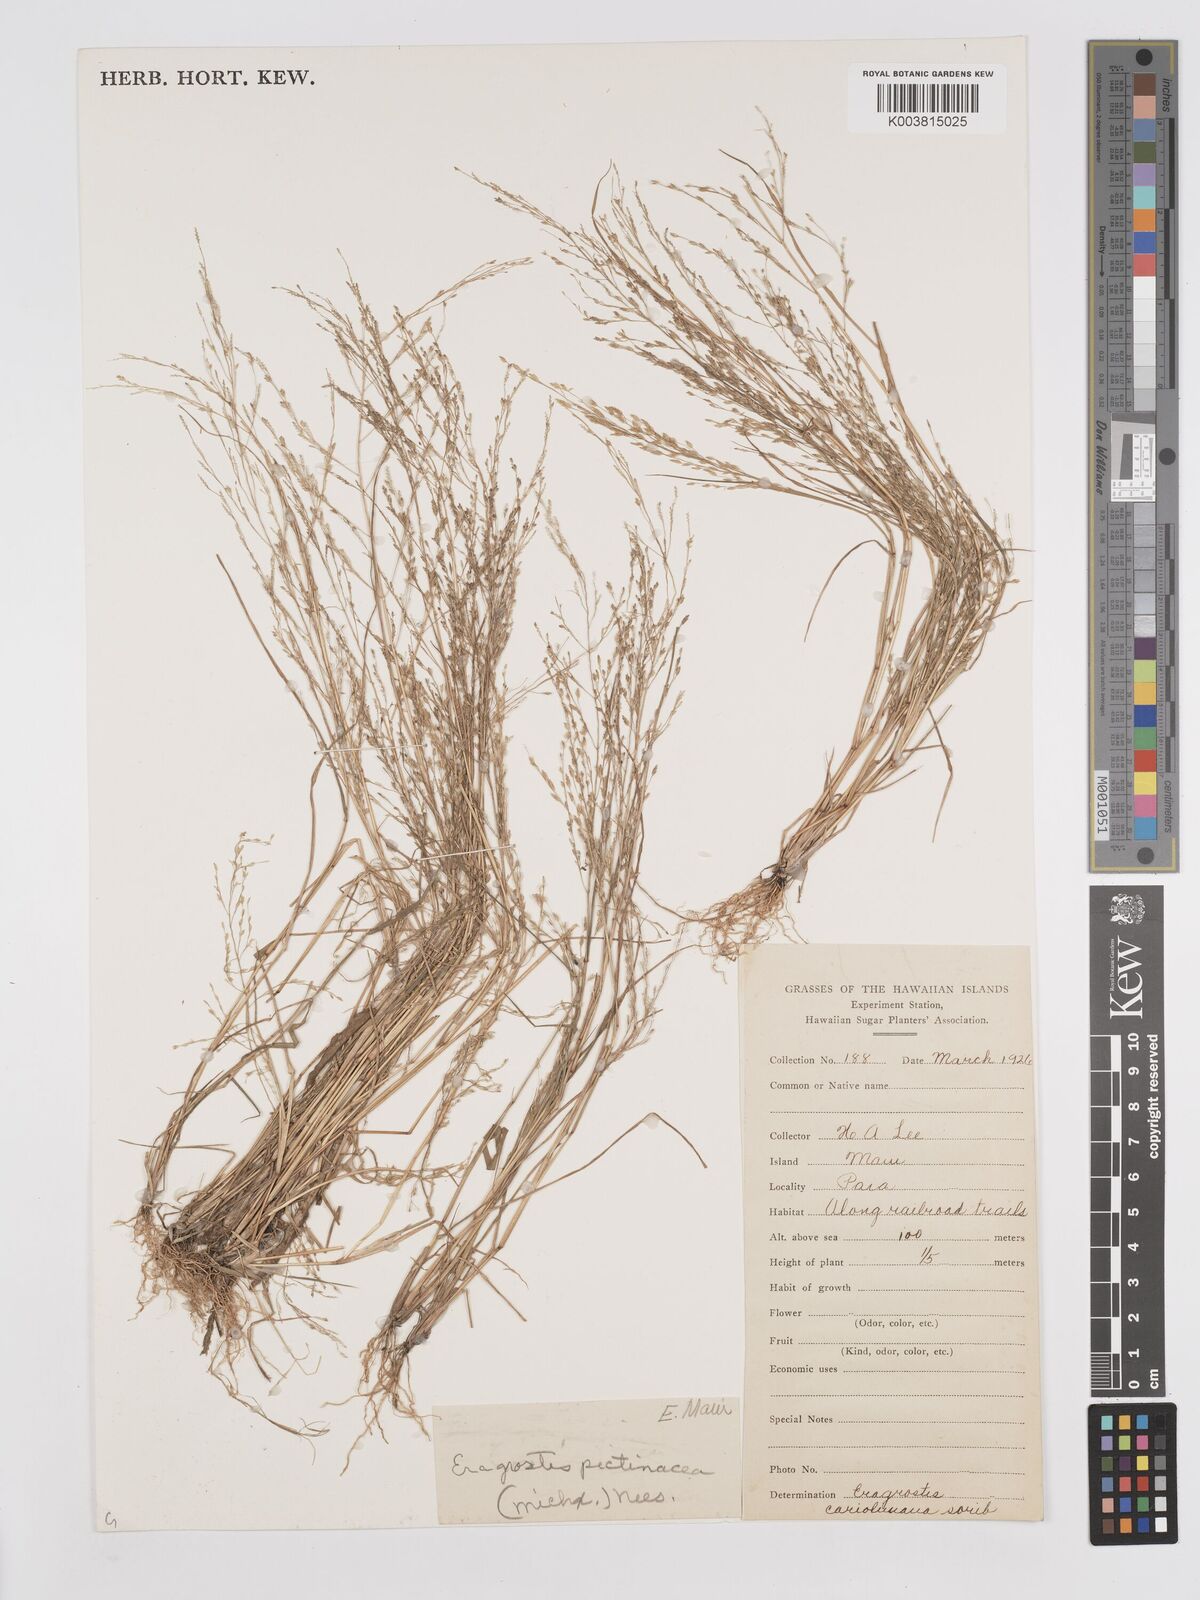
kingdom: Plantae
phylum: Tracheophyta
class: Liliopsida
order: Poales
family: Poaceae
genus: Eragrostis
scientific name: Eragrostis pectinacea
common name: Tufted lovegrass
